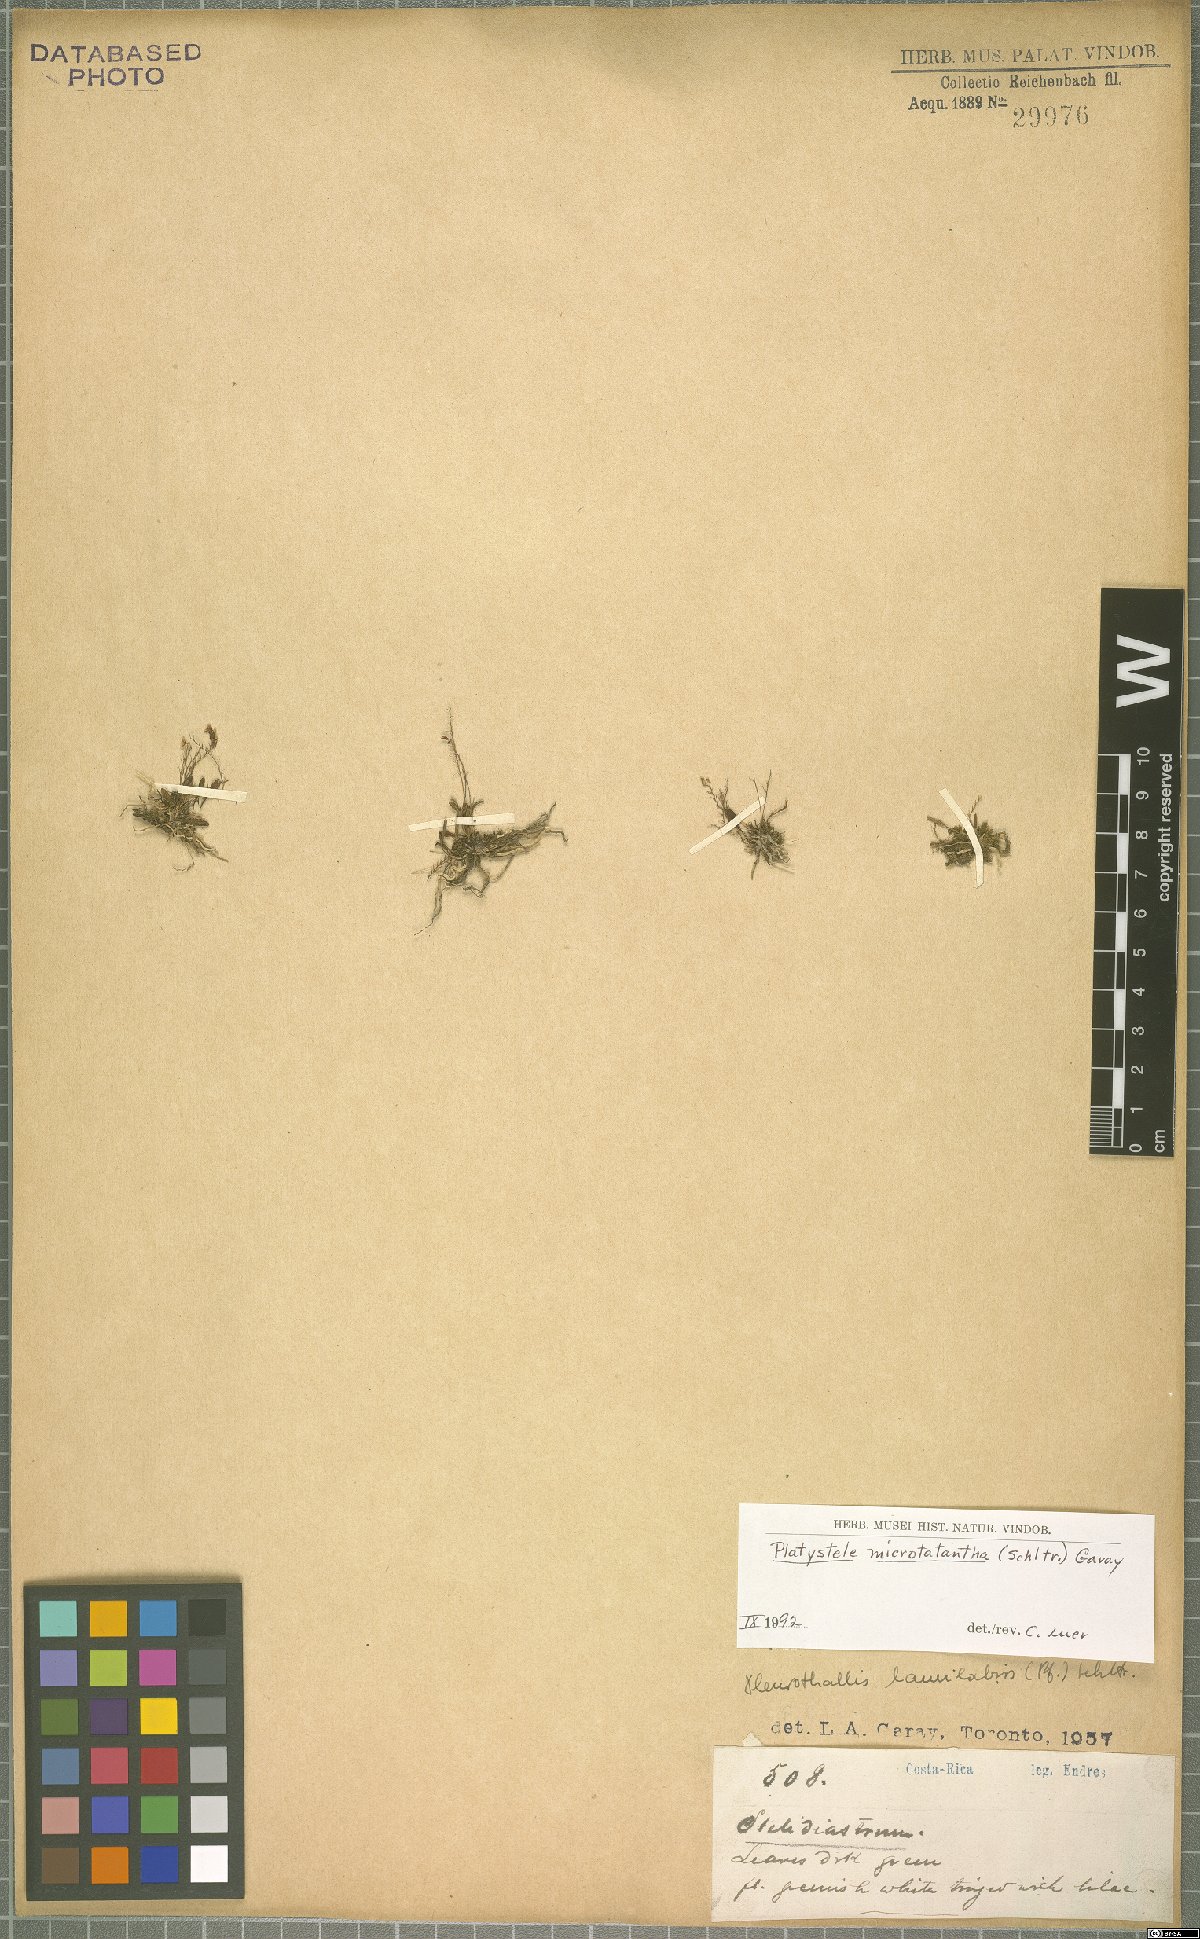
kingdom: Plantae
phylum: Tracheophyta
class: Liliopsida
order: Asparagales
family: Orchidaceae
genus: Platystele
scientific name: Platystele microtatantha
